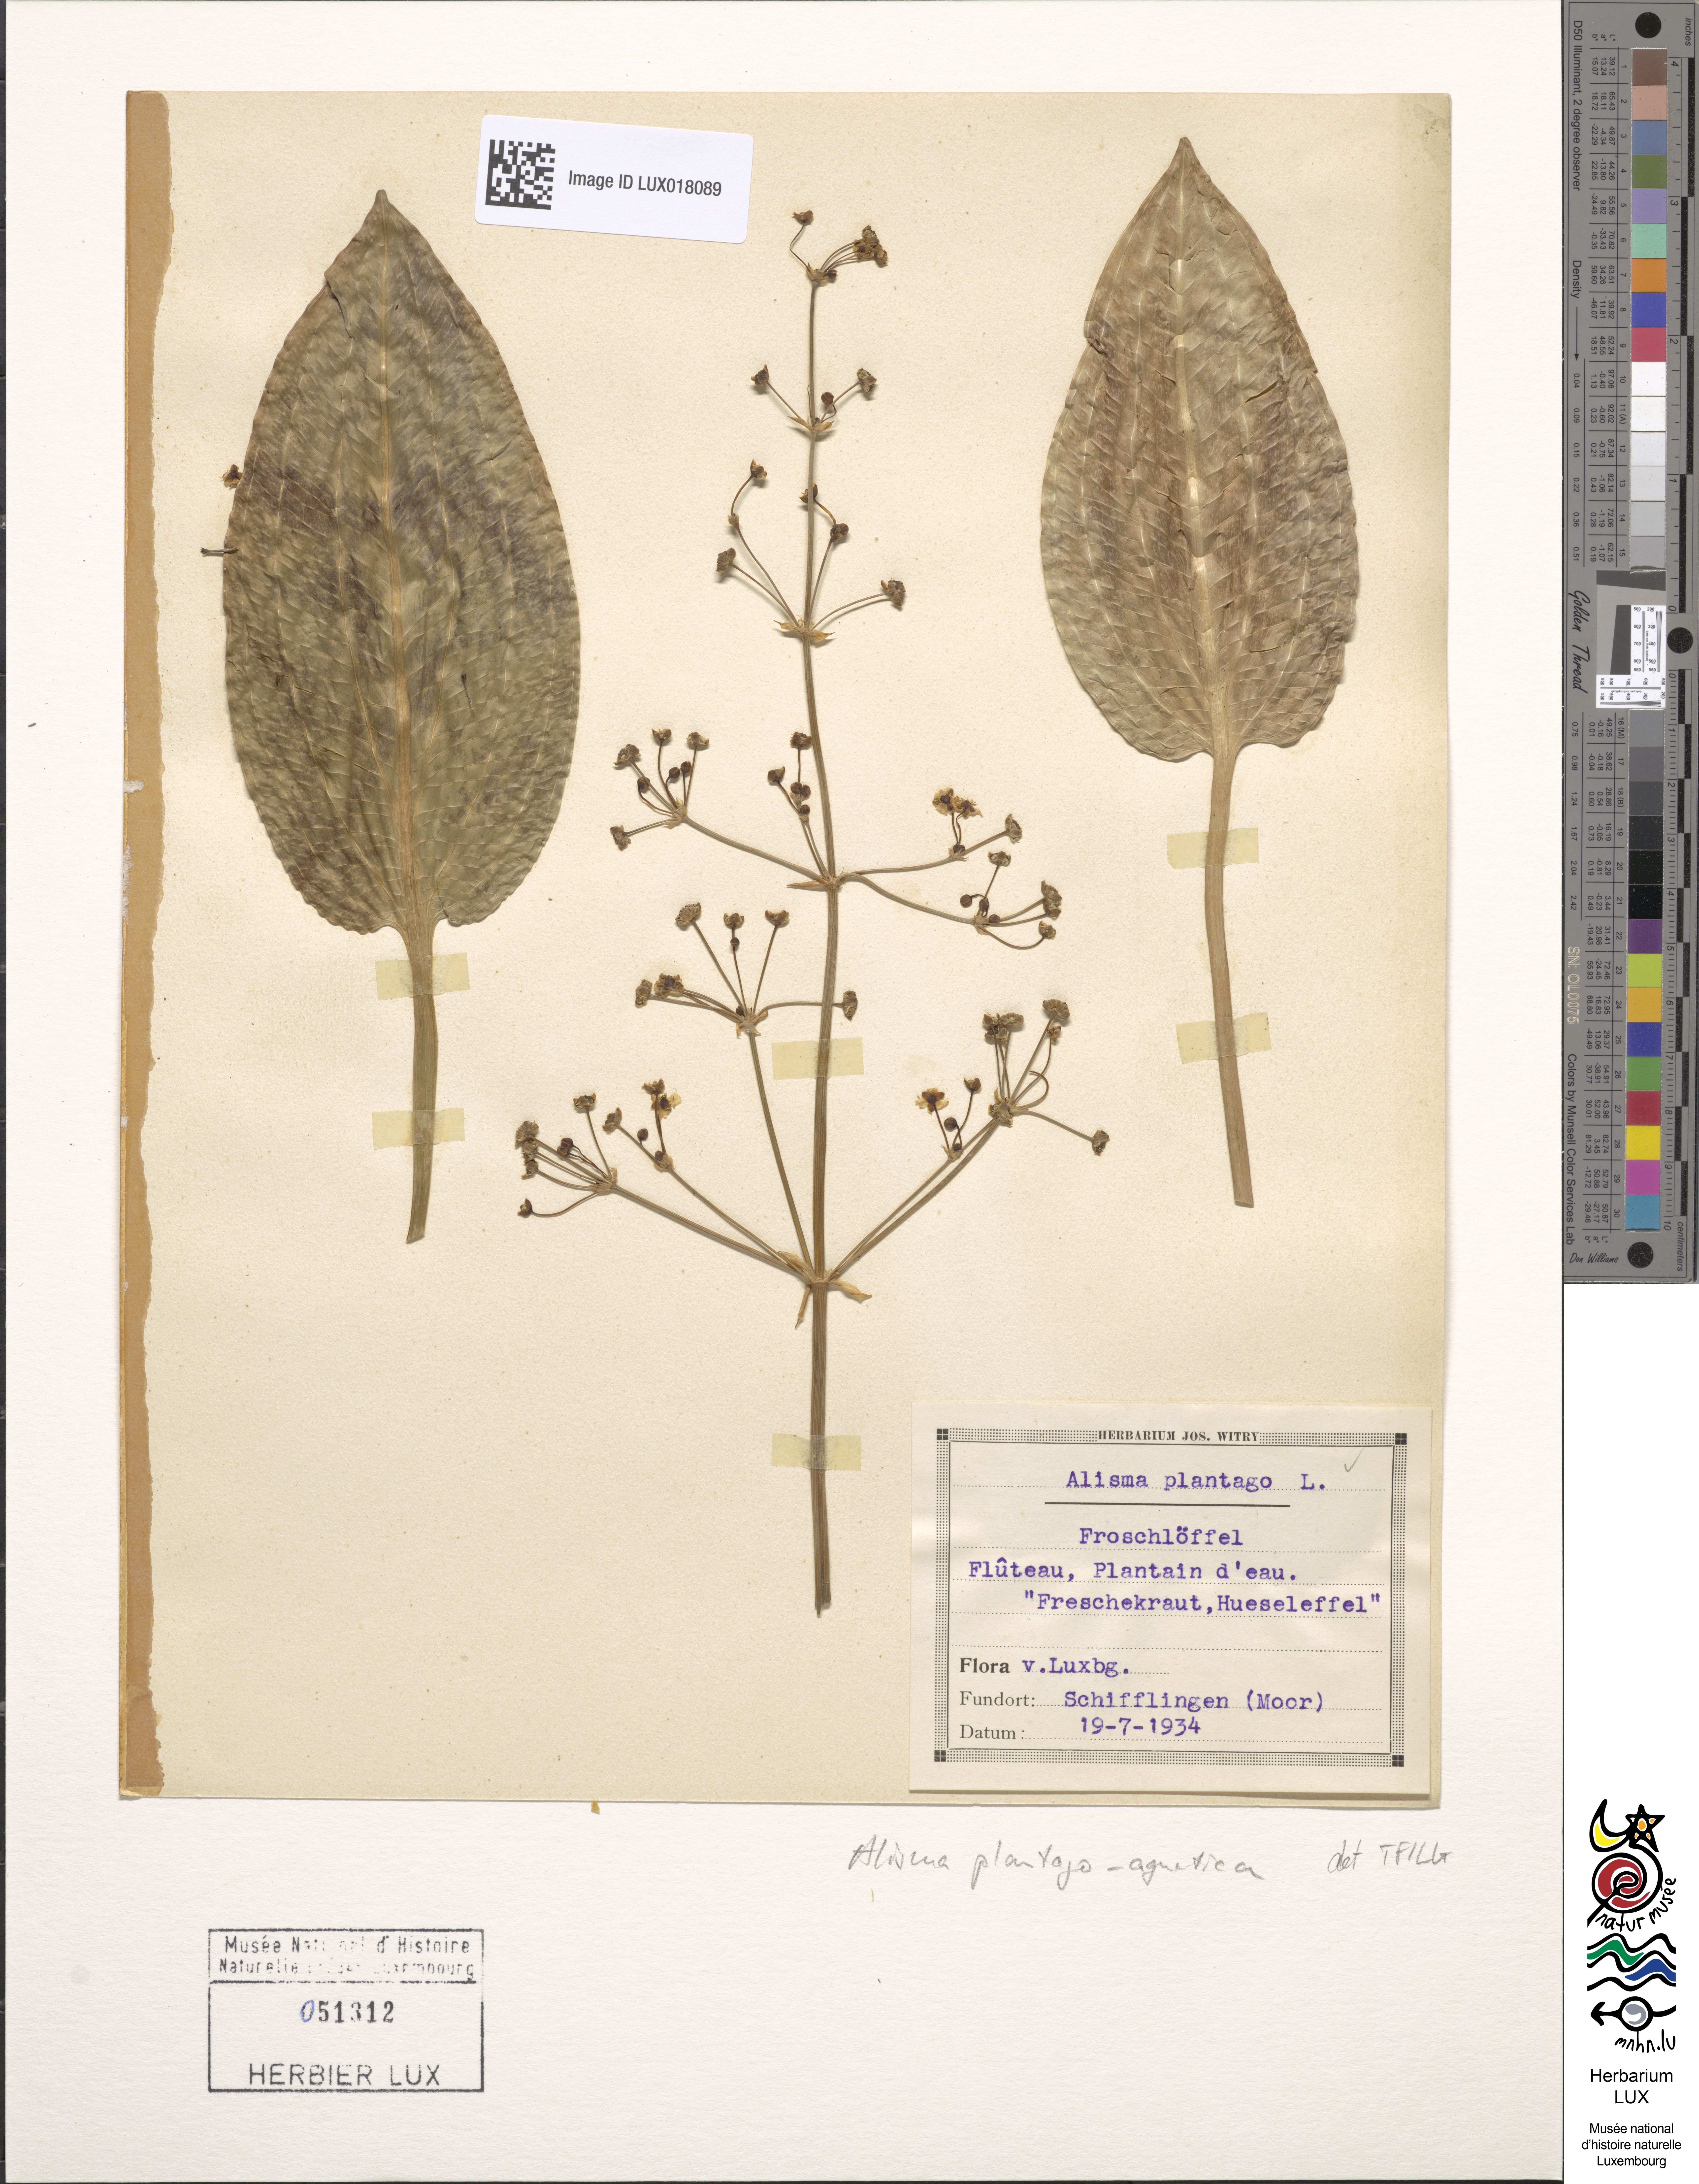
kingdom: Plantae
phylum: Tracheophyta
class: Liliopsida
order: Alismatales
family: Alismataceae
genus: Alisma
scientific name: Alisma plantago-aquatica
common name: Water-plantain
